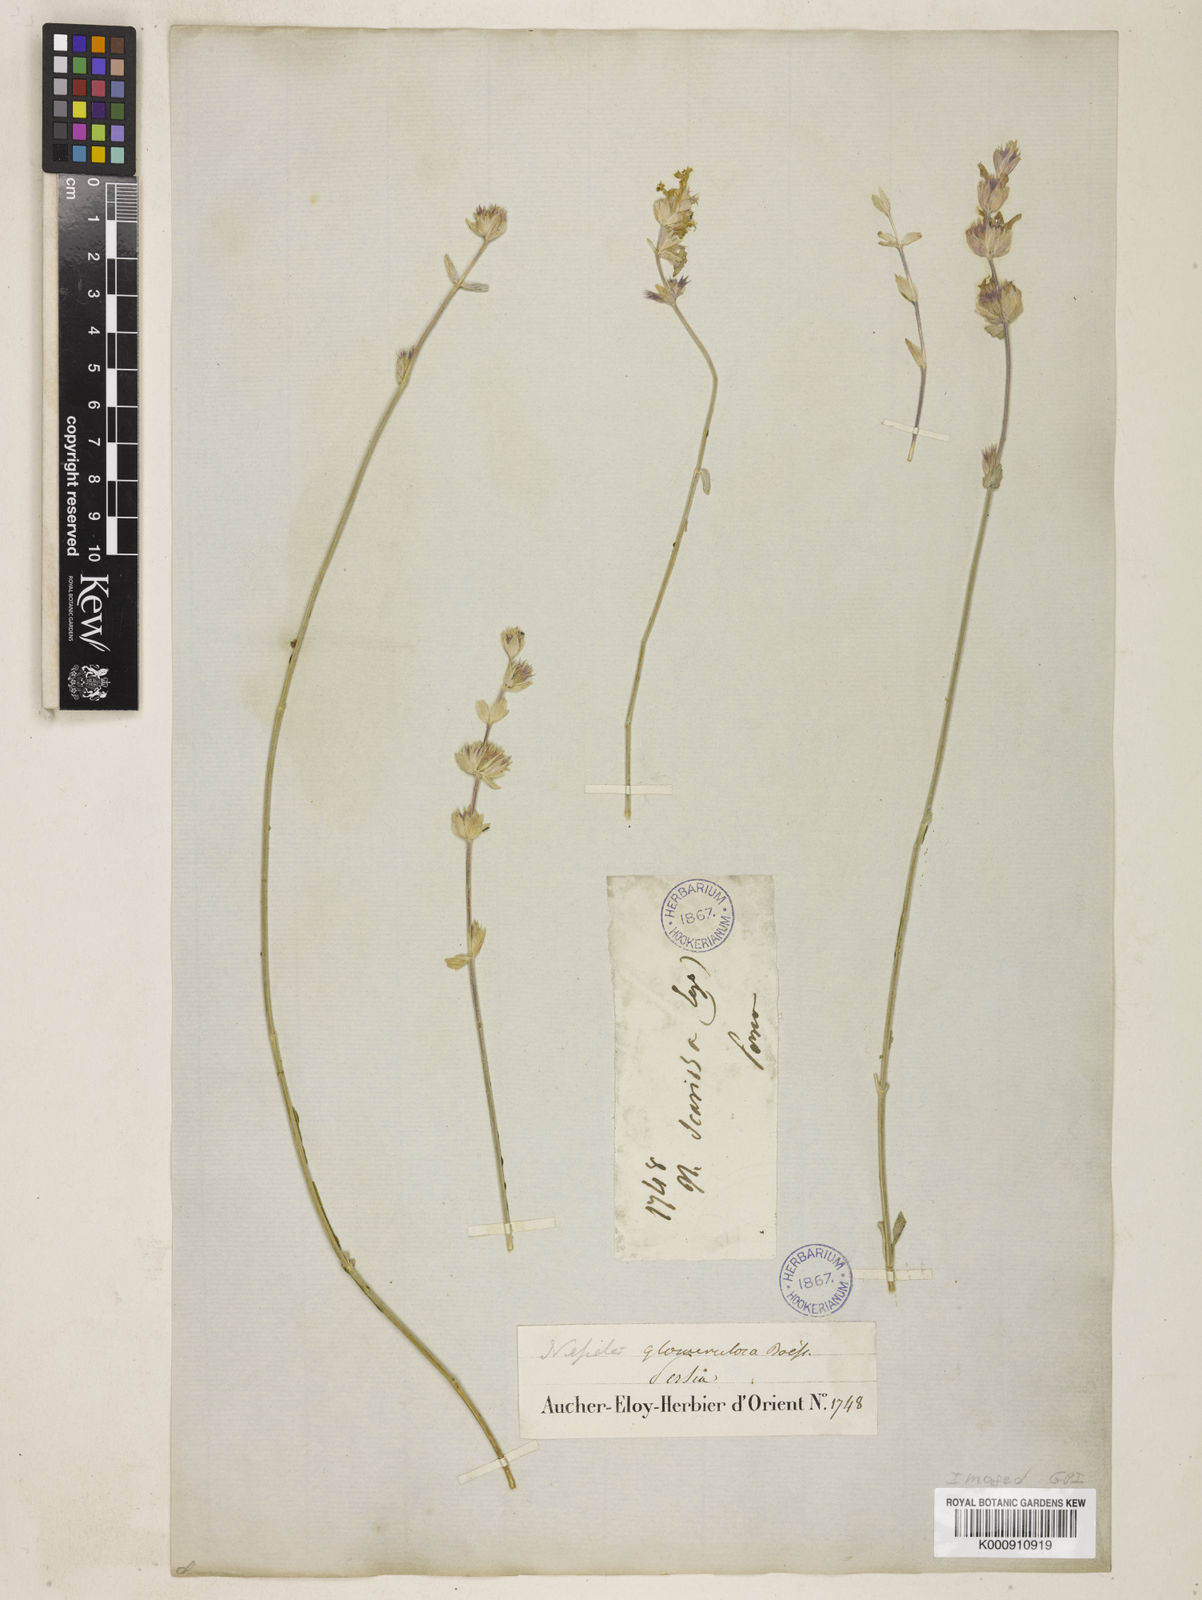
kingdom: Plantae
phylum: Tracheophyta
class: Magnoliopsida
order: Lamiales
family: Lamiaceae
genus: Nepeta
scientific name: Nepeta glomerulosa
